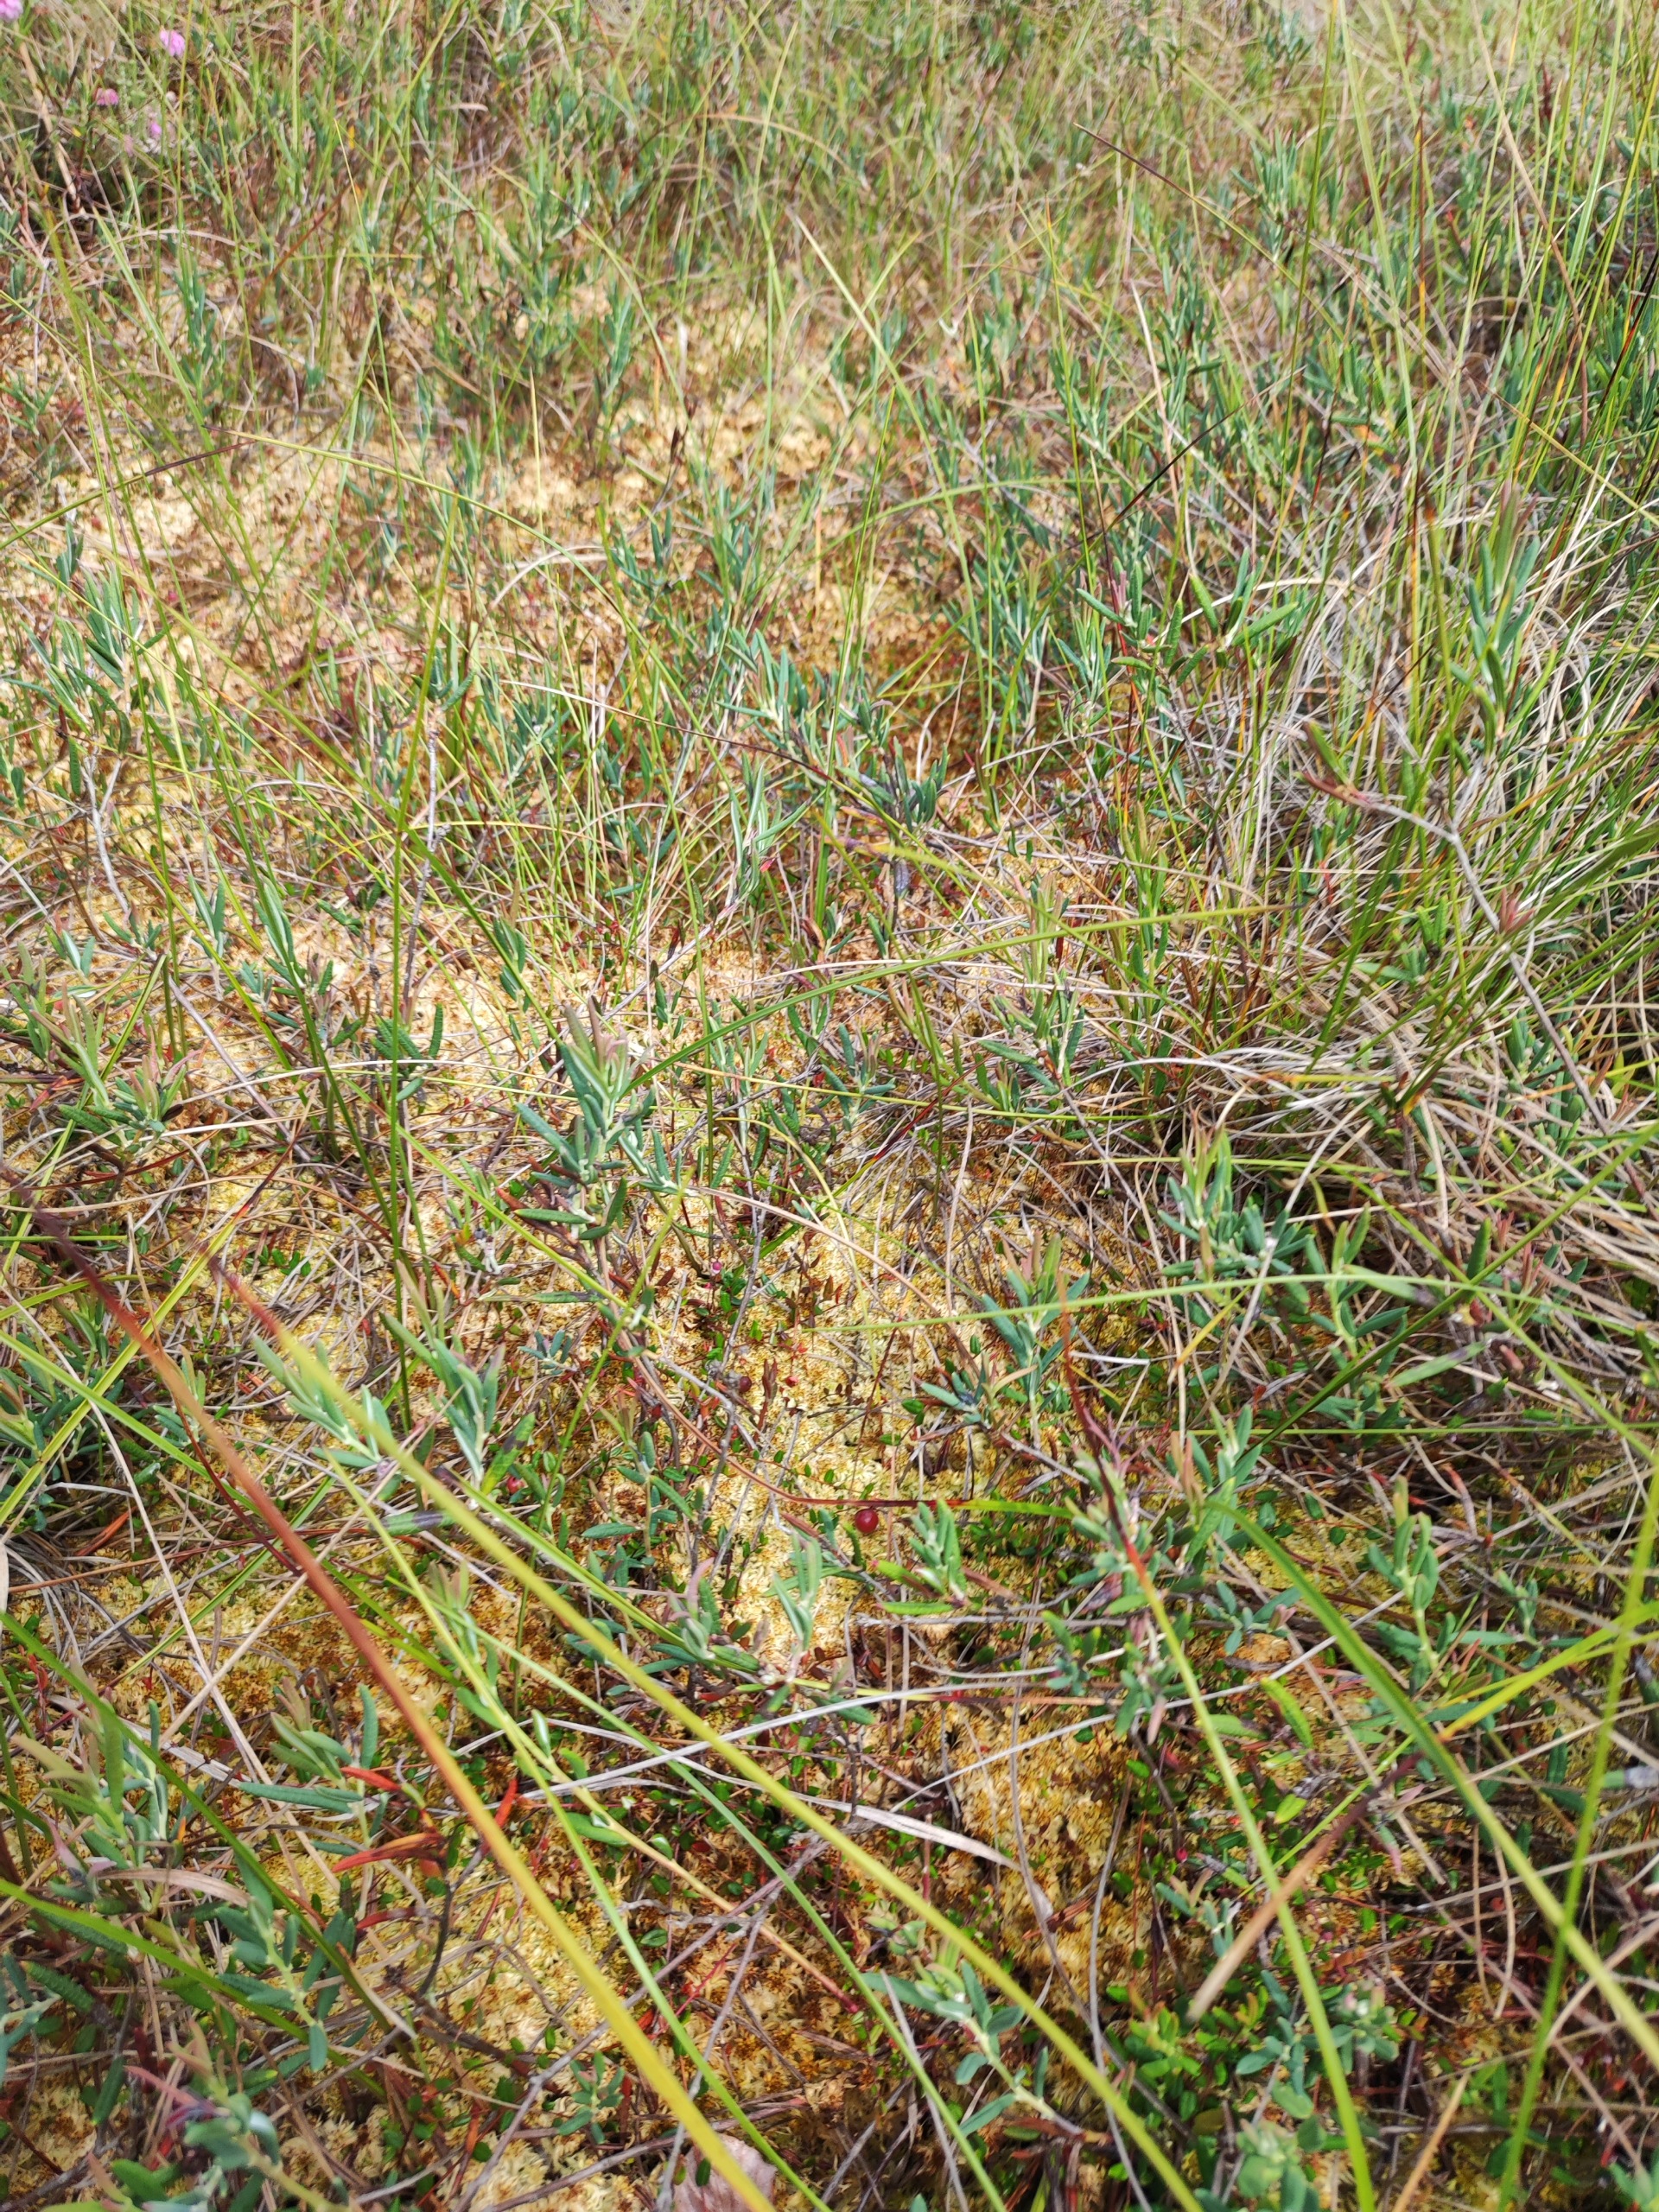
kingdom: Plantae
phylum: Tracheophyta
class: Magnoliopsida
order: Ericales
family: Ericaceae
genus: Andromeda
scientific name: Andromeda polifolia
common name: Rosmarinlyng
